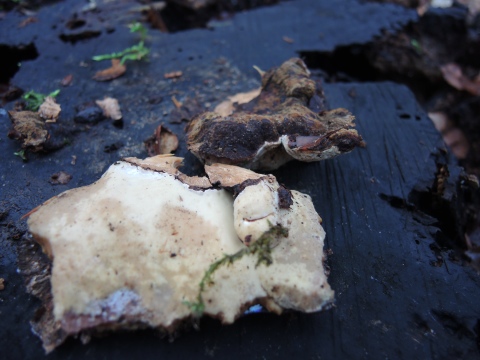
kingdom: Fungi
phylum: Basidiomycota
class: Agaricomycetes
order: Polyporales
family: Ischnodermataceae
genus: Ischnoderma
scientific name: Ischnoderma resinosum
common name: løv-tjæreporesvamp
